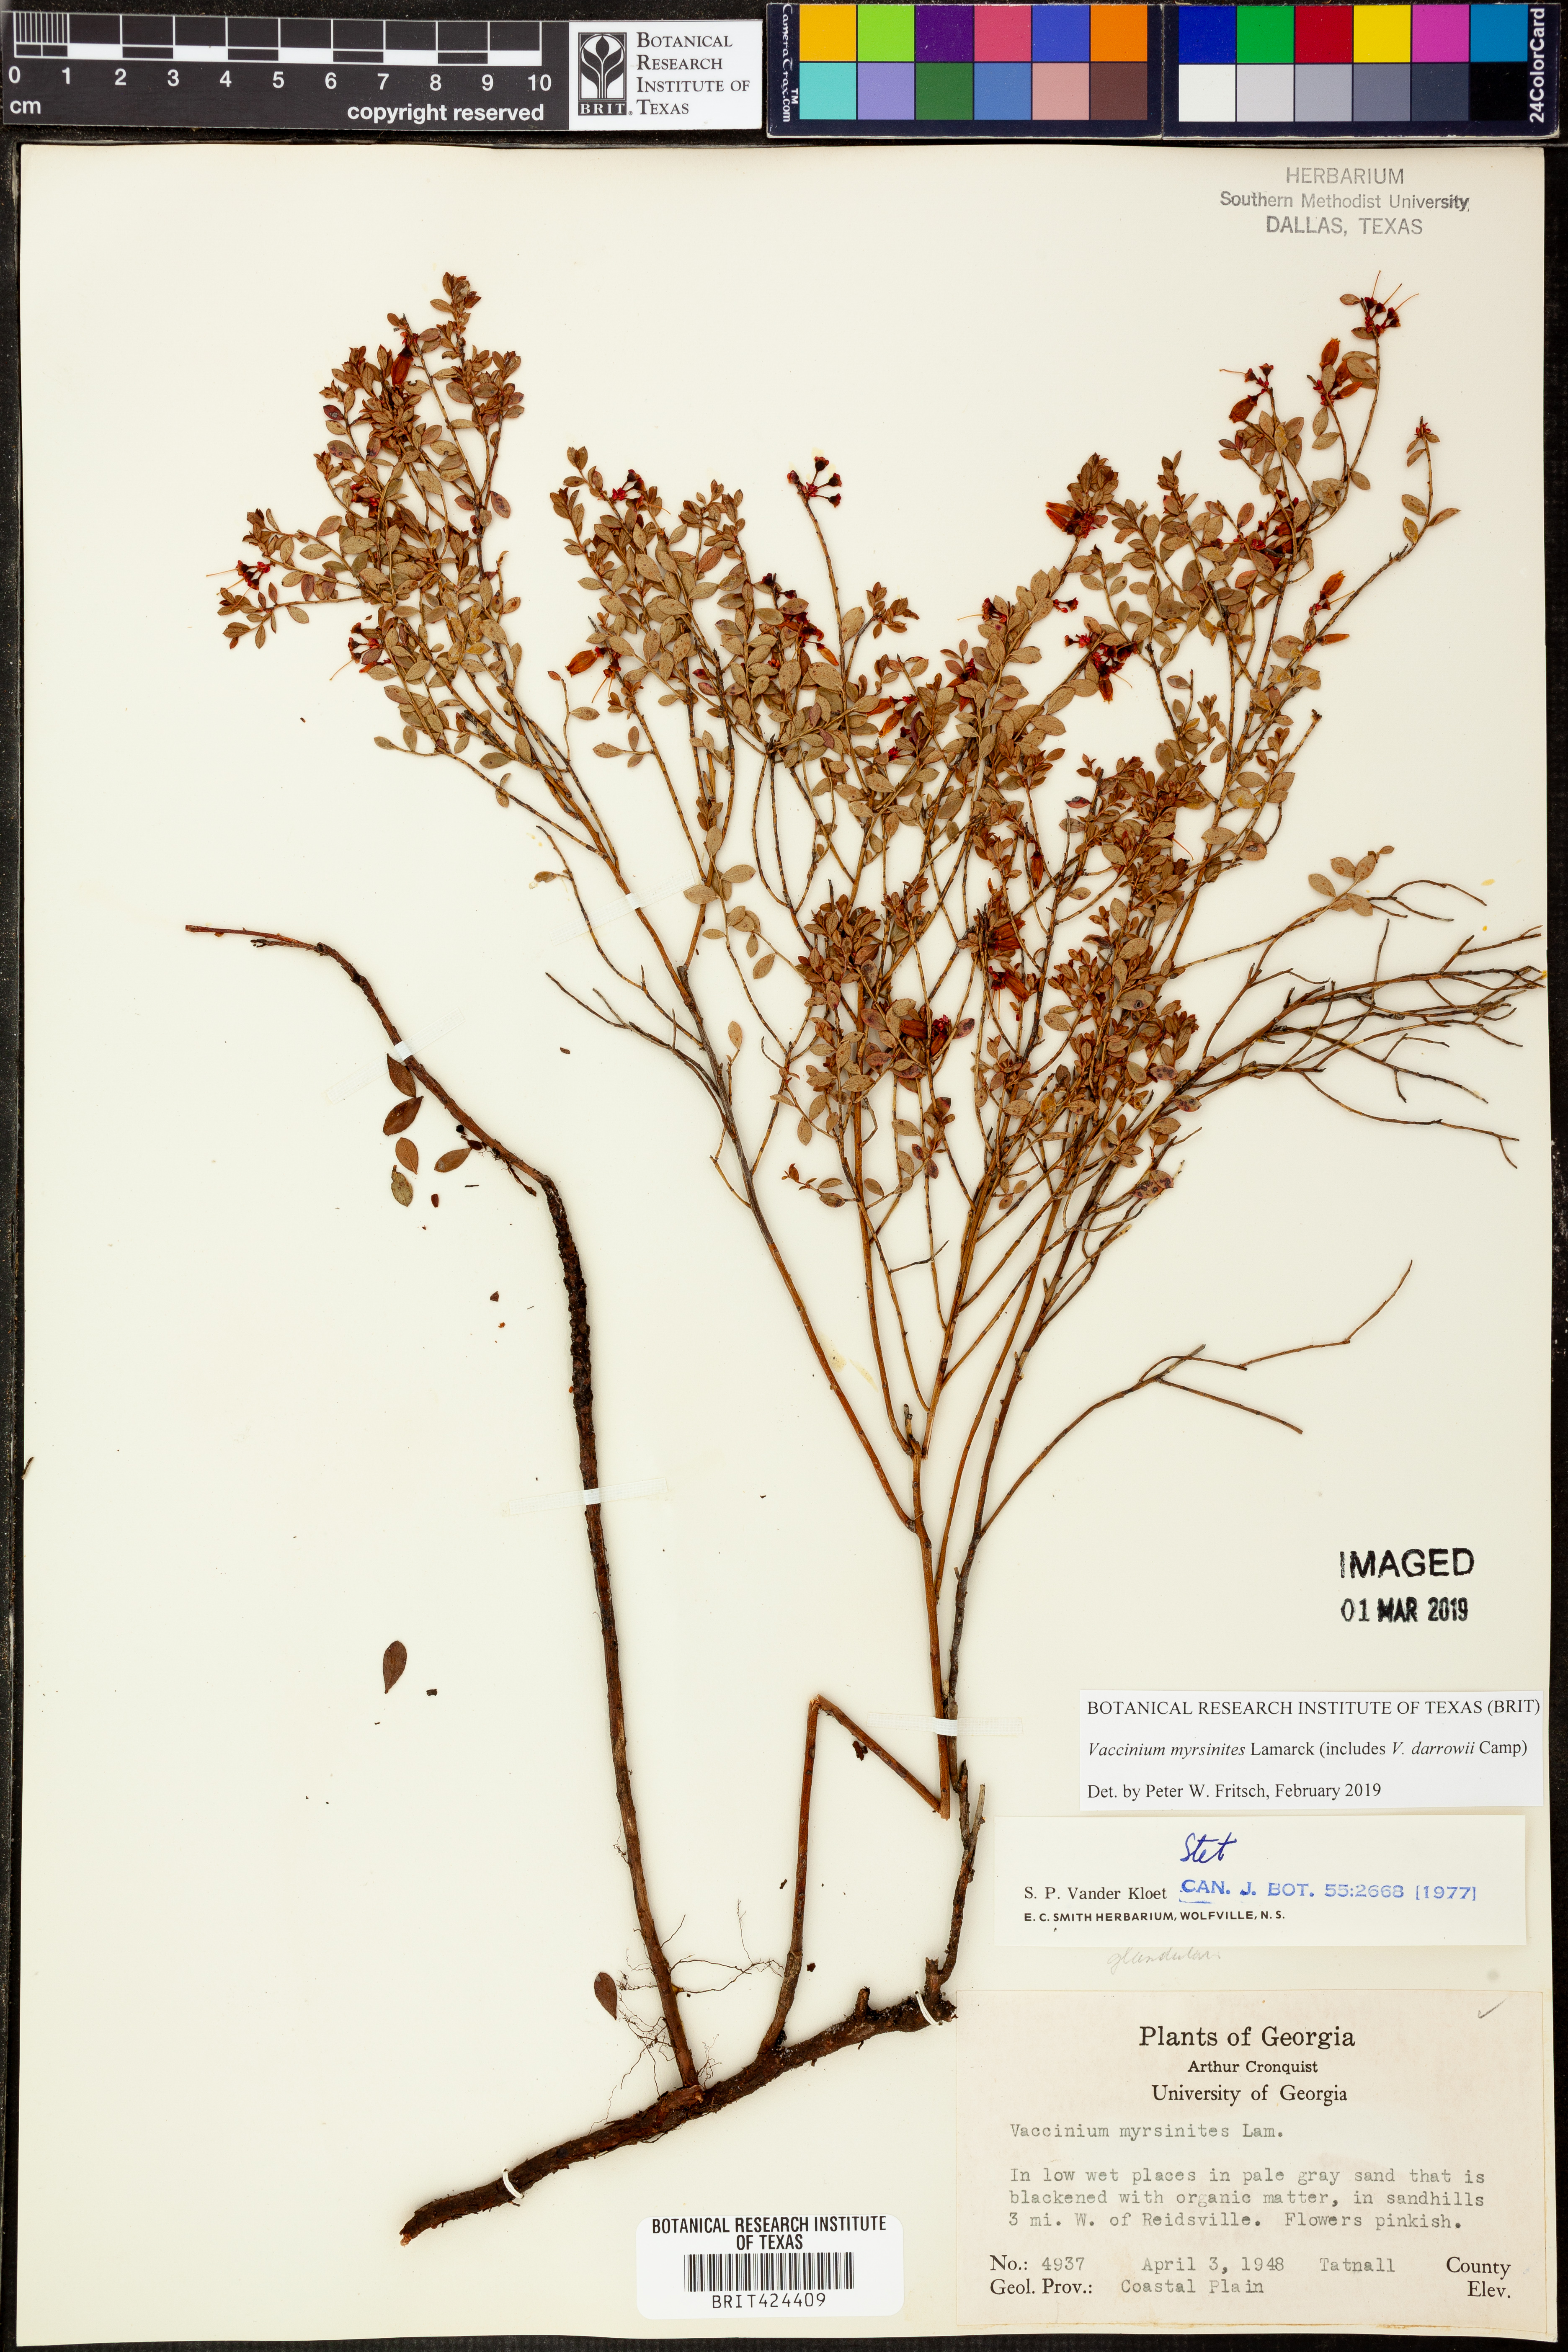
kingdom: Plantae
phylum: Tracheophyta
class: Magnoliopsida
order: Ericales
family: Ericaceae
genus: Vaccinium
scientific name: Vaccinium myrsinites
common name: Evergreen blueberry
